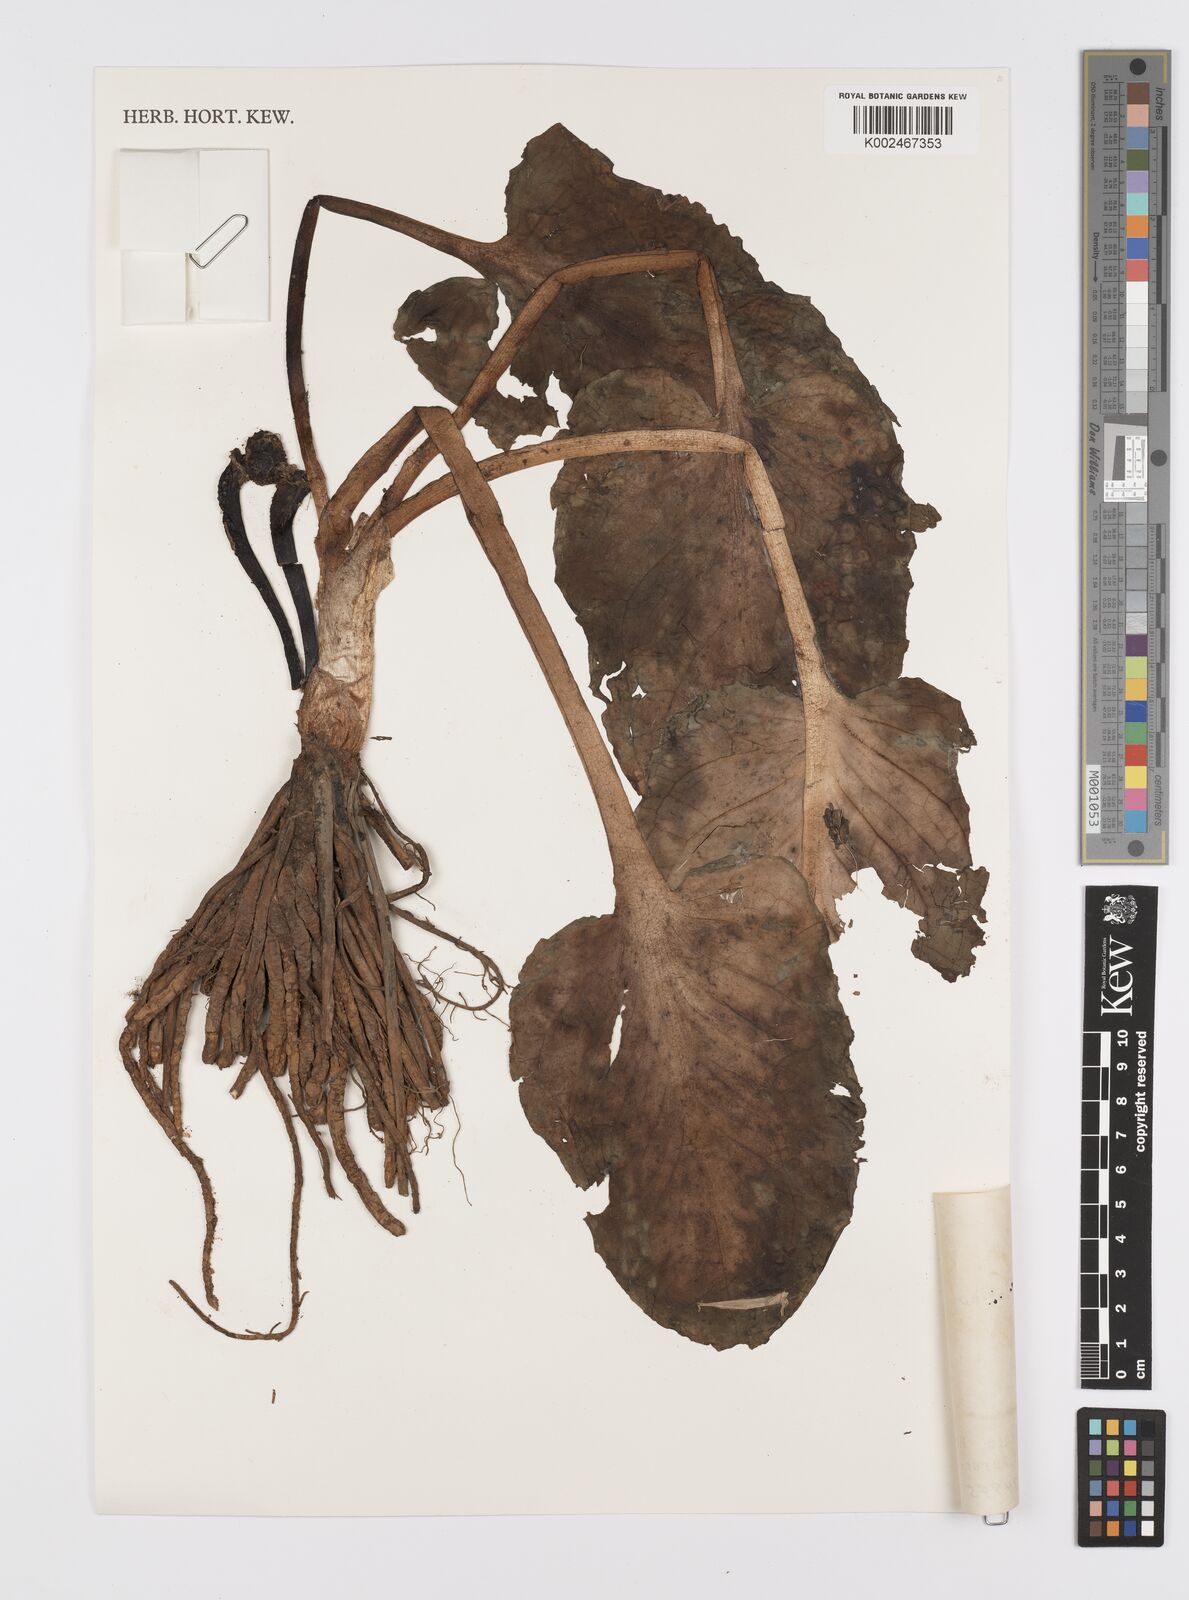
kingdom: Plantae
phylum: Tracheophyta
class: Liliopsida
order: Alismatales
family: Araceae
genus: Symplocarpus
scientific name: Symplocarpus nipponicus
